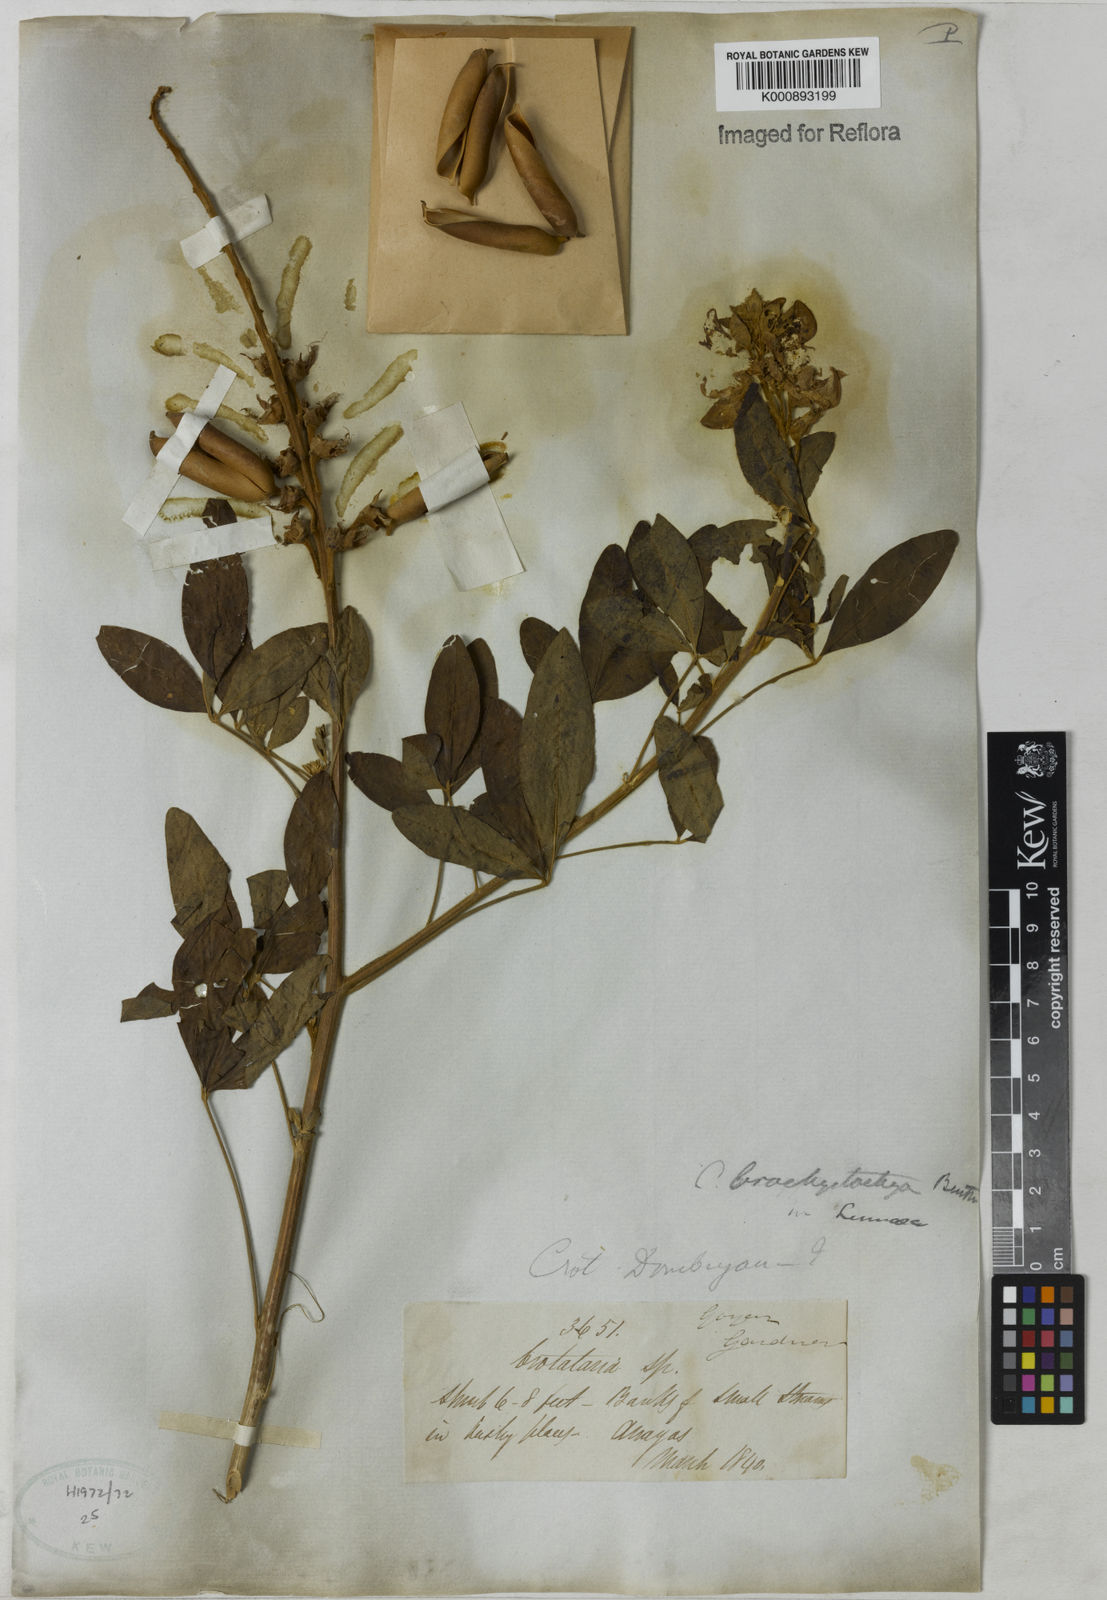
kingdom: Plantae
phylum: Tracheophyta
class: Magnoliopsida
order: Fabales
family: Fabaceae
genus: Crotalaria
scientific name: Crotalaria micans
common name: Caracas rattlebox
